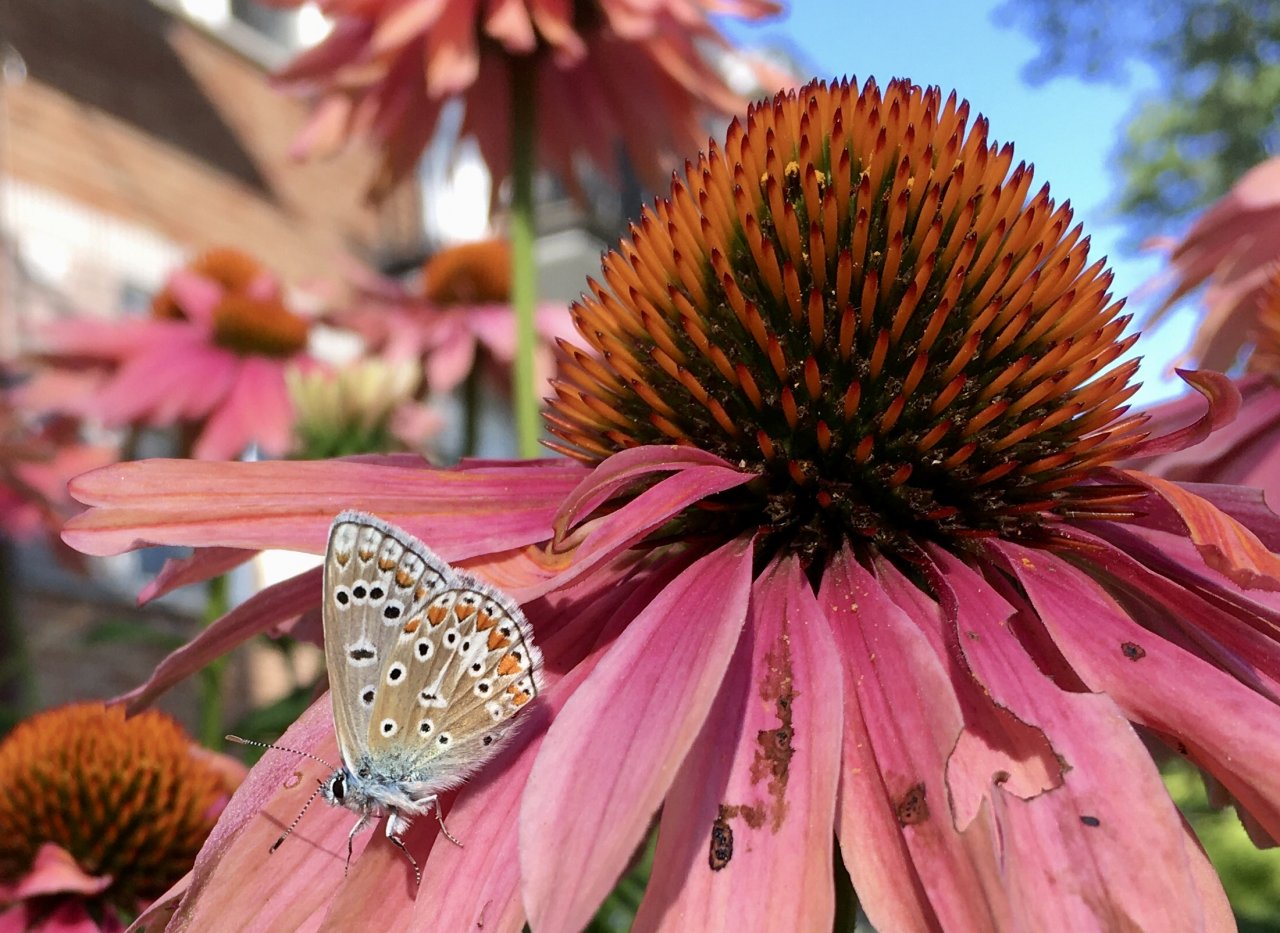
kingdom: Animalia
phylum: Arthropoda
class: Insecta
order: Lepidoptera
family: Lycaenidae
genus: Polyommatus
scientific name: Polyommatus icarus
